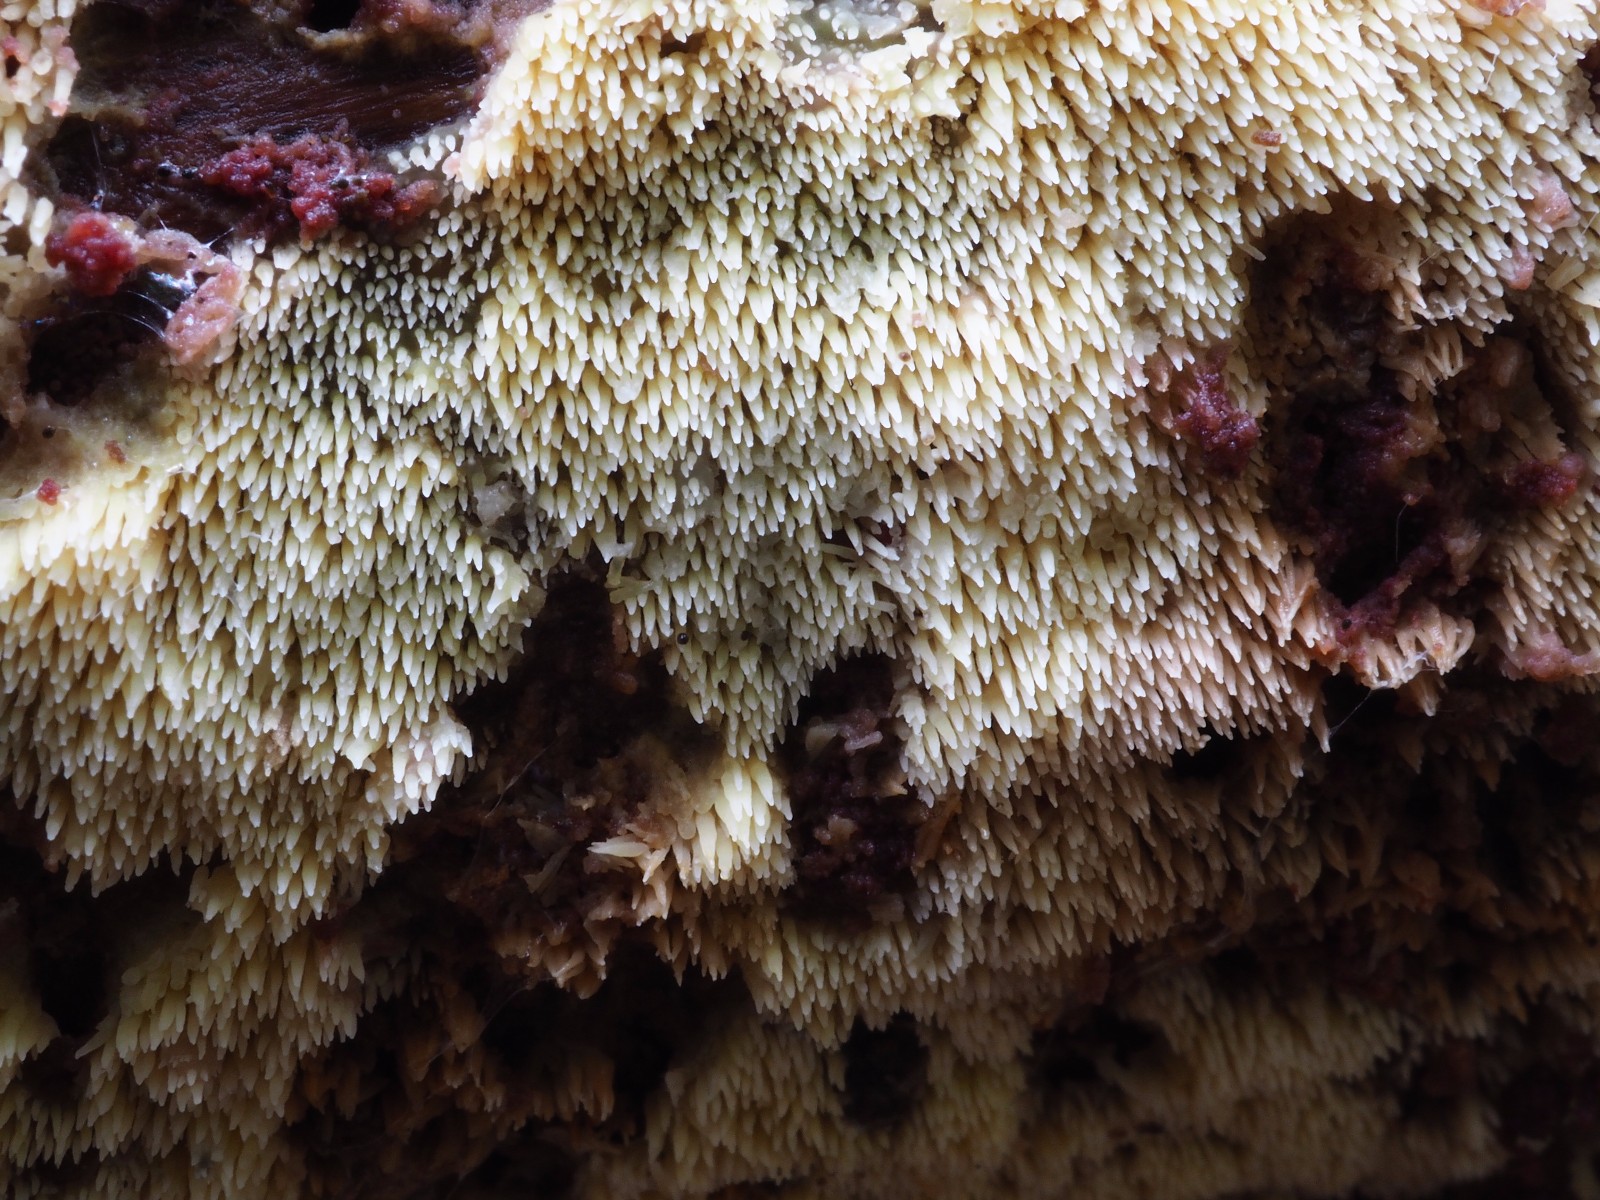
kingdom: Fungi
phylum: Basidiomycota
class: Agaricomycetes
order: Polyporales
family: Meruliaceae
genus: Mycoacia
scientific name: Mycoacia uda
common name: citrongul vokspig
